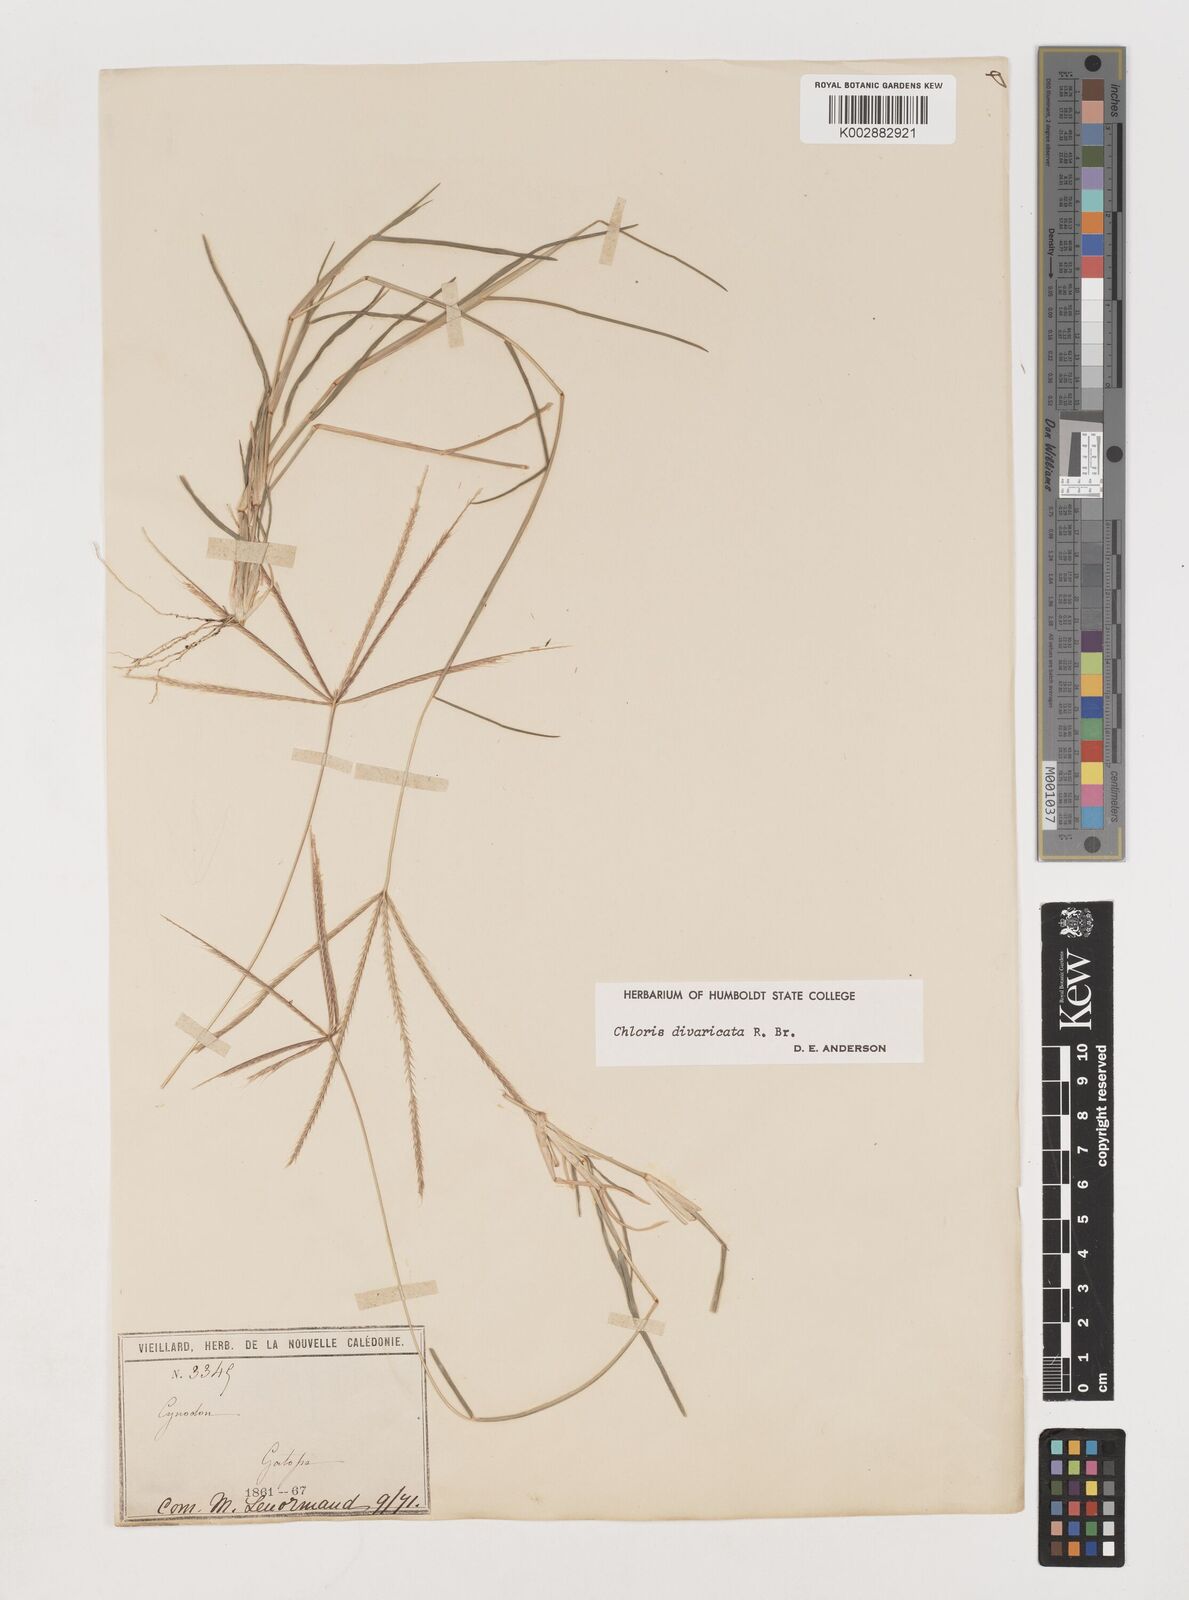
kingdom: Plantae
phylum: Tracheophyta
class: Liliopsida
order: Poales
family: Poaceae
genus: Chloris
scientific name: Chloris divaricata
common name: Spreading windmill grass
